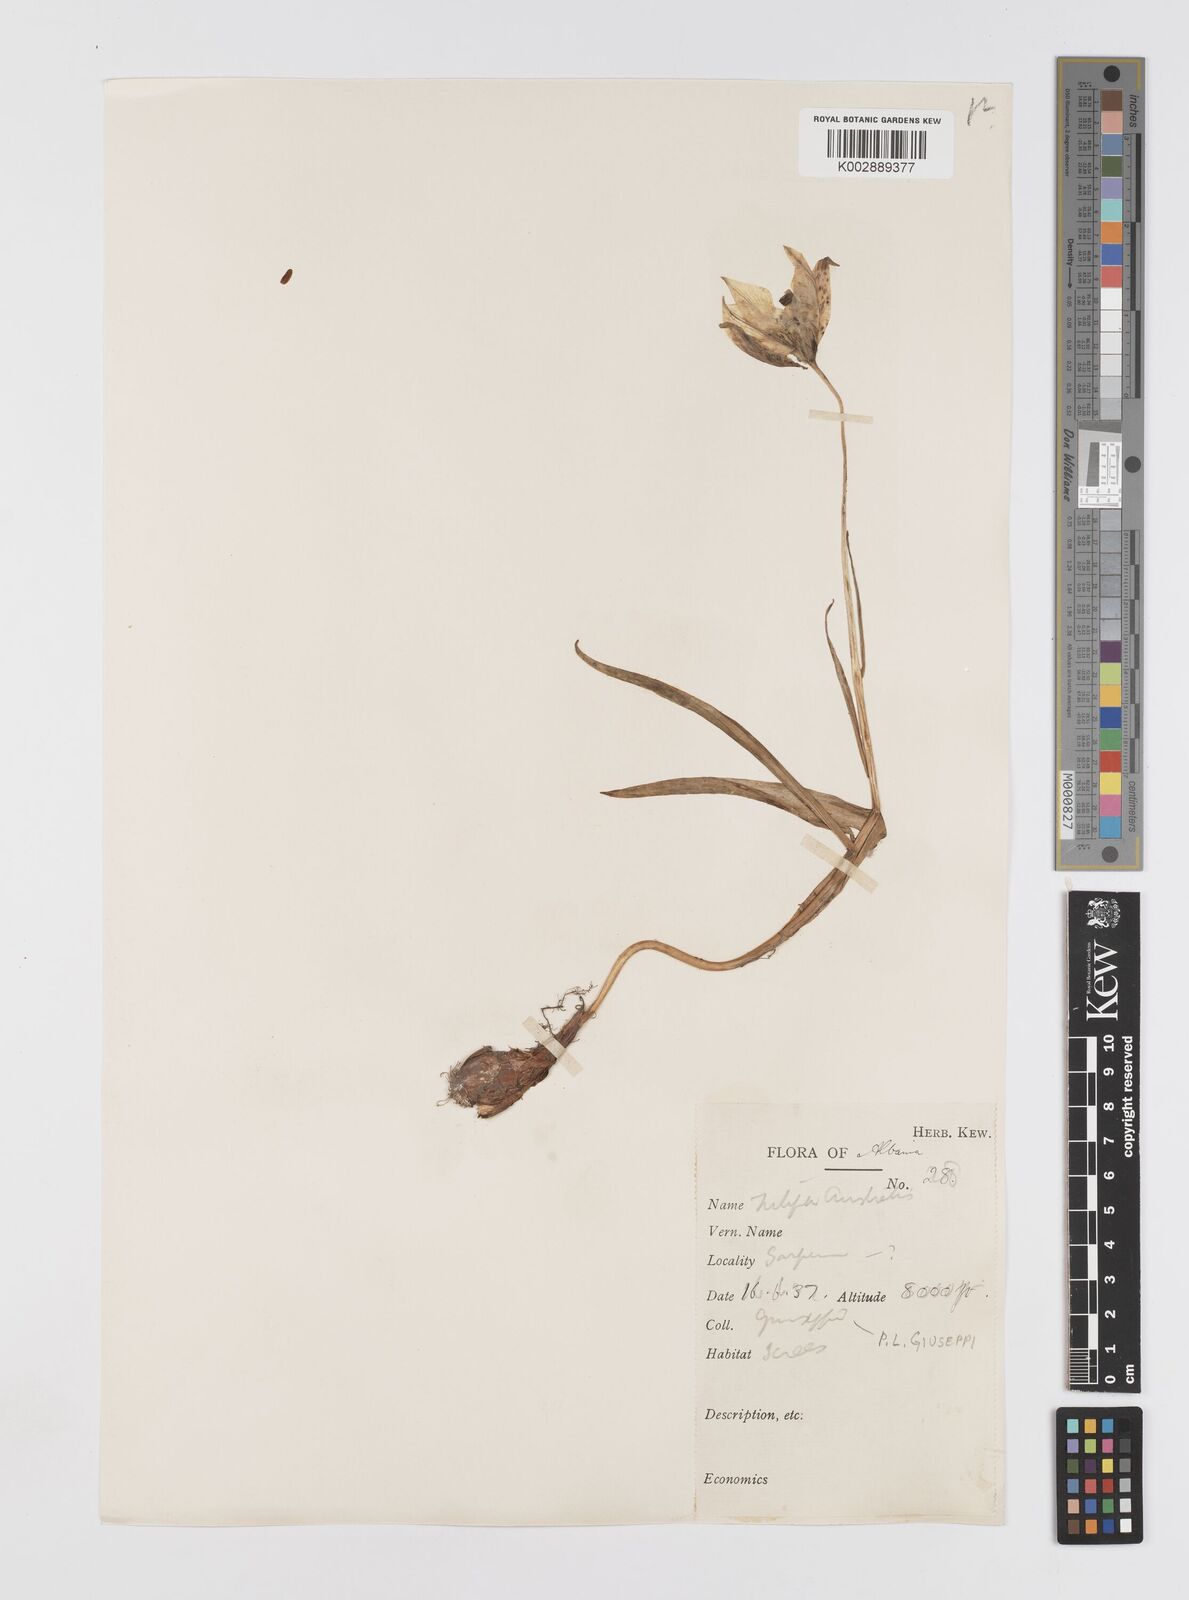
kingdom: Plantae
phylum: Tracheophyta
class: Liliopsida
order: Liliales
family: Liliaceae
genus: Tulipa
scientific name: Tulipa sylvestris
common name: Wild tulip
